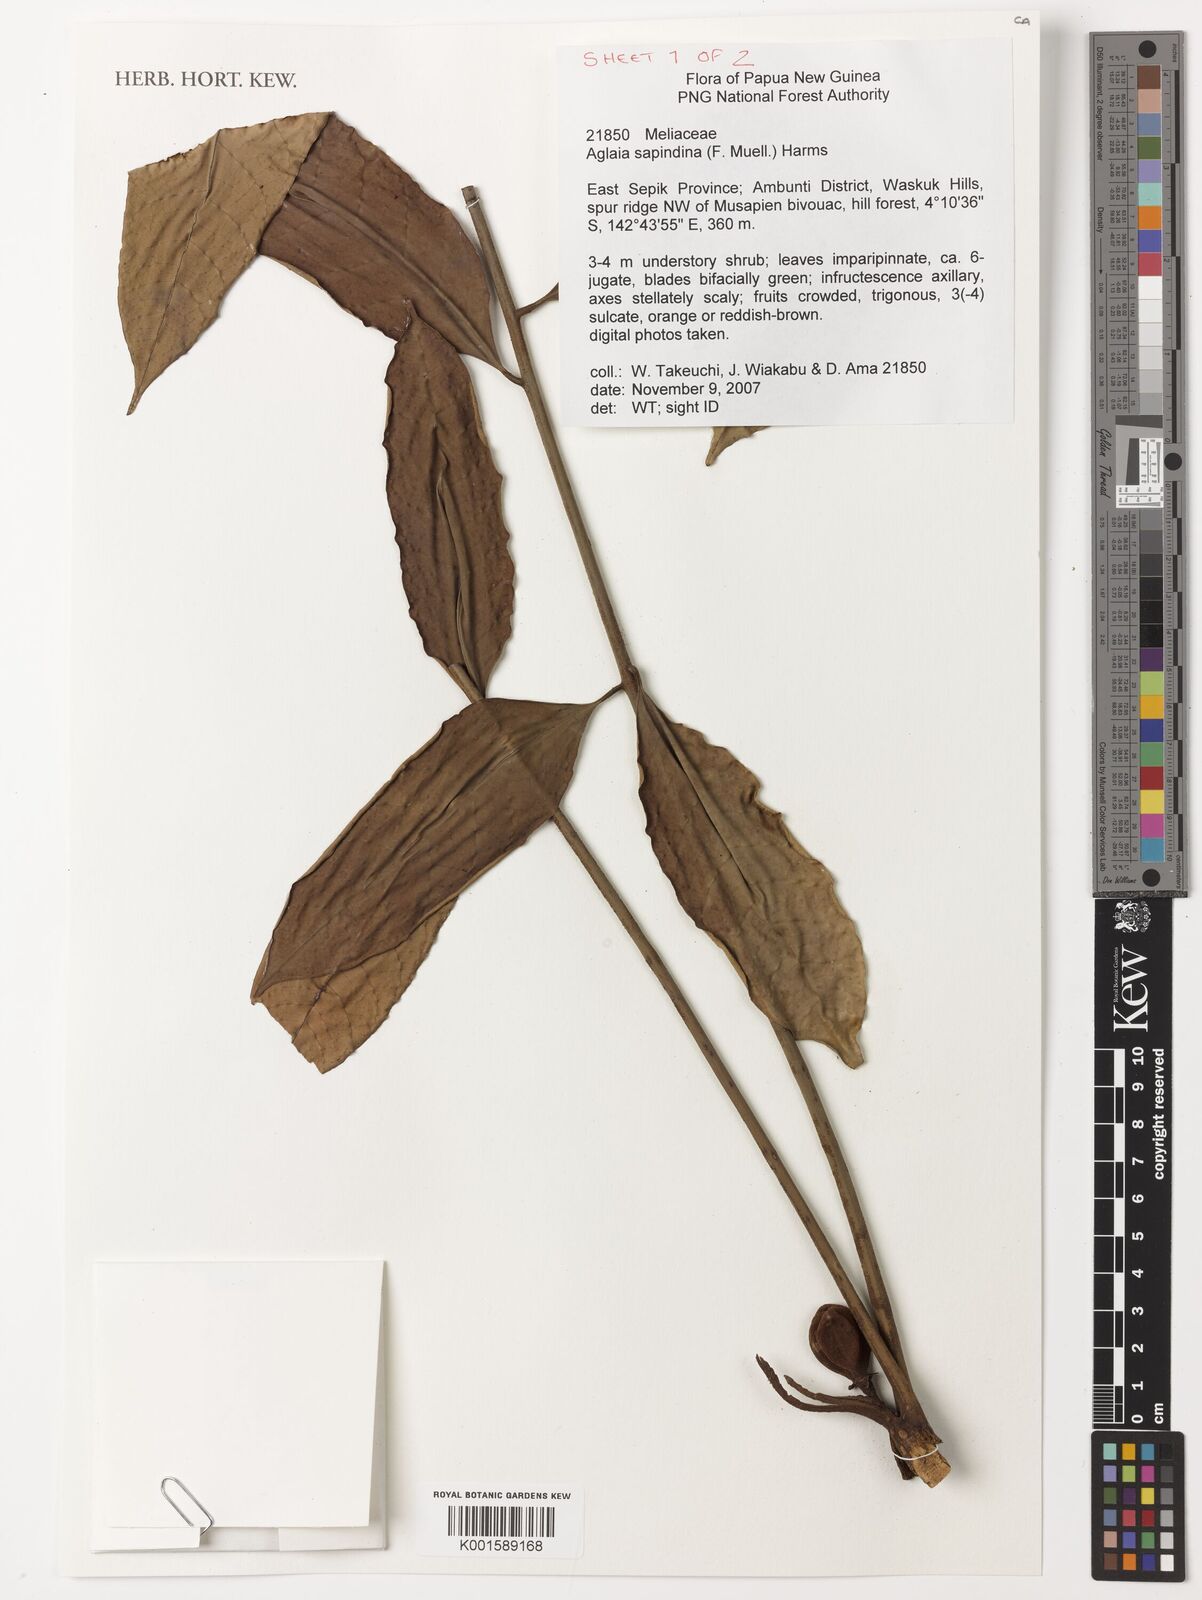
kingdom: Plantae
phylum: Tracheophyta
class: Magnoliopsida
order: Sapindales
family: Meliaceae
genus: Aglaia
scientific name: Aglaia sapindina
